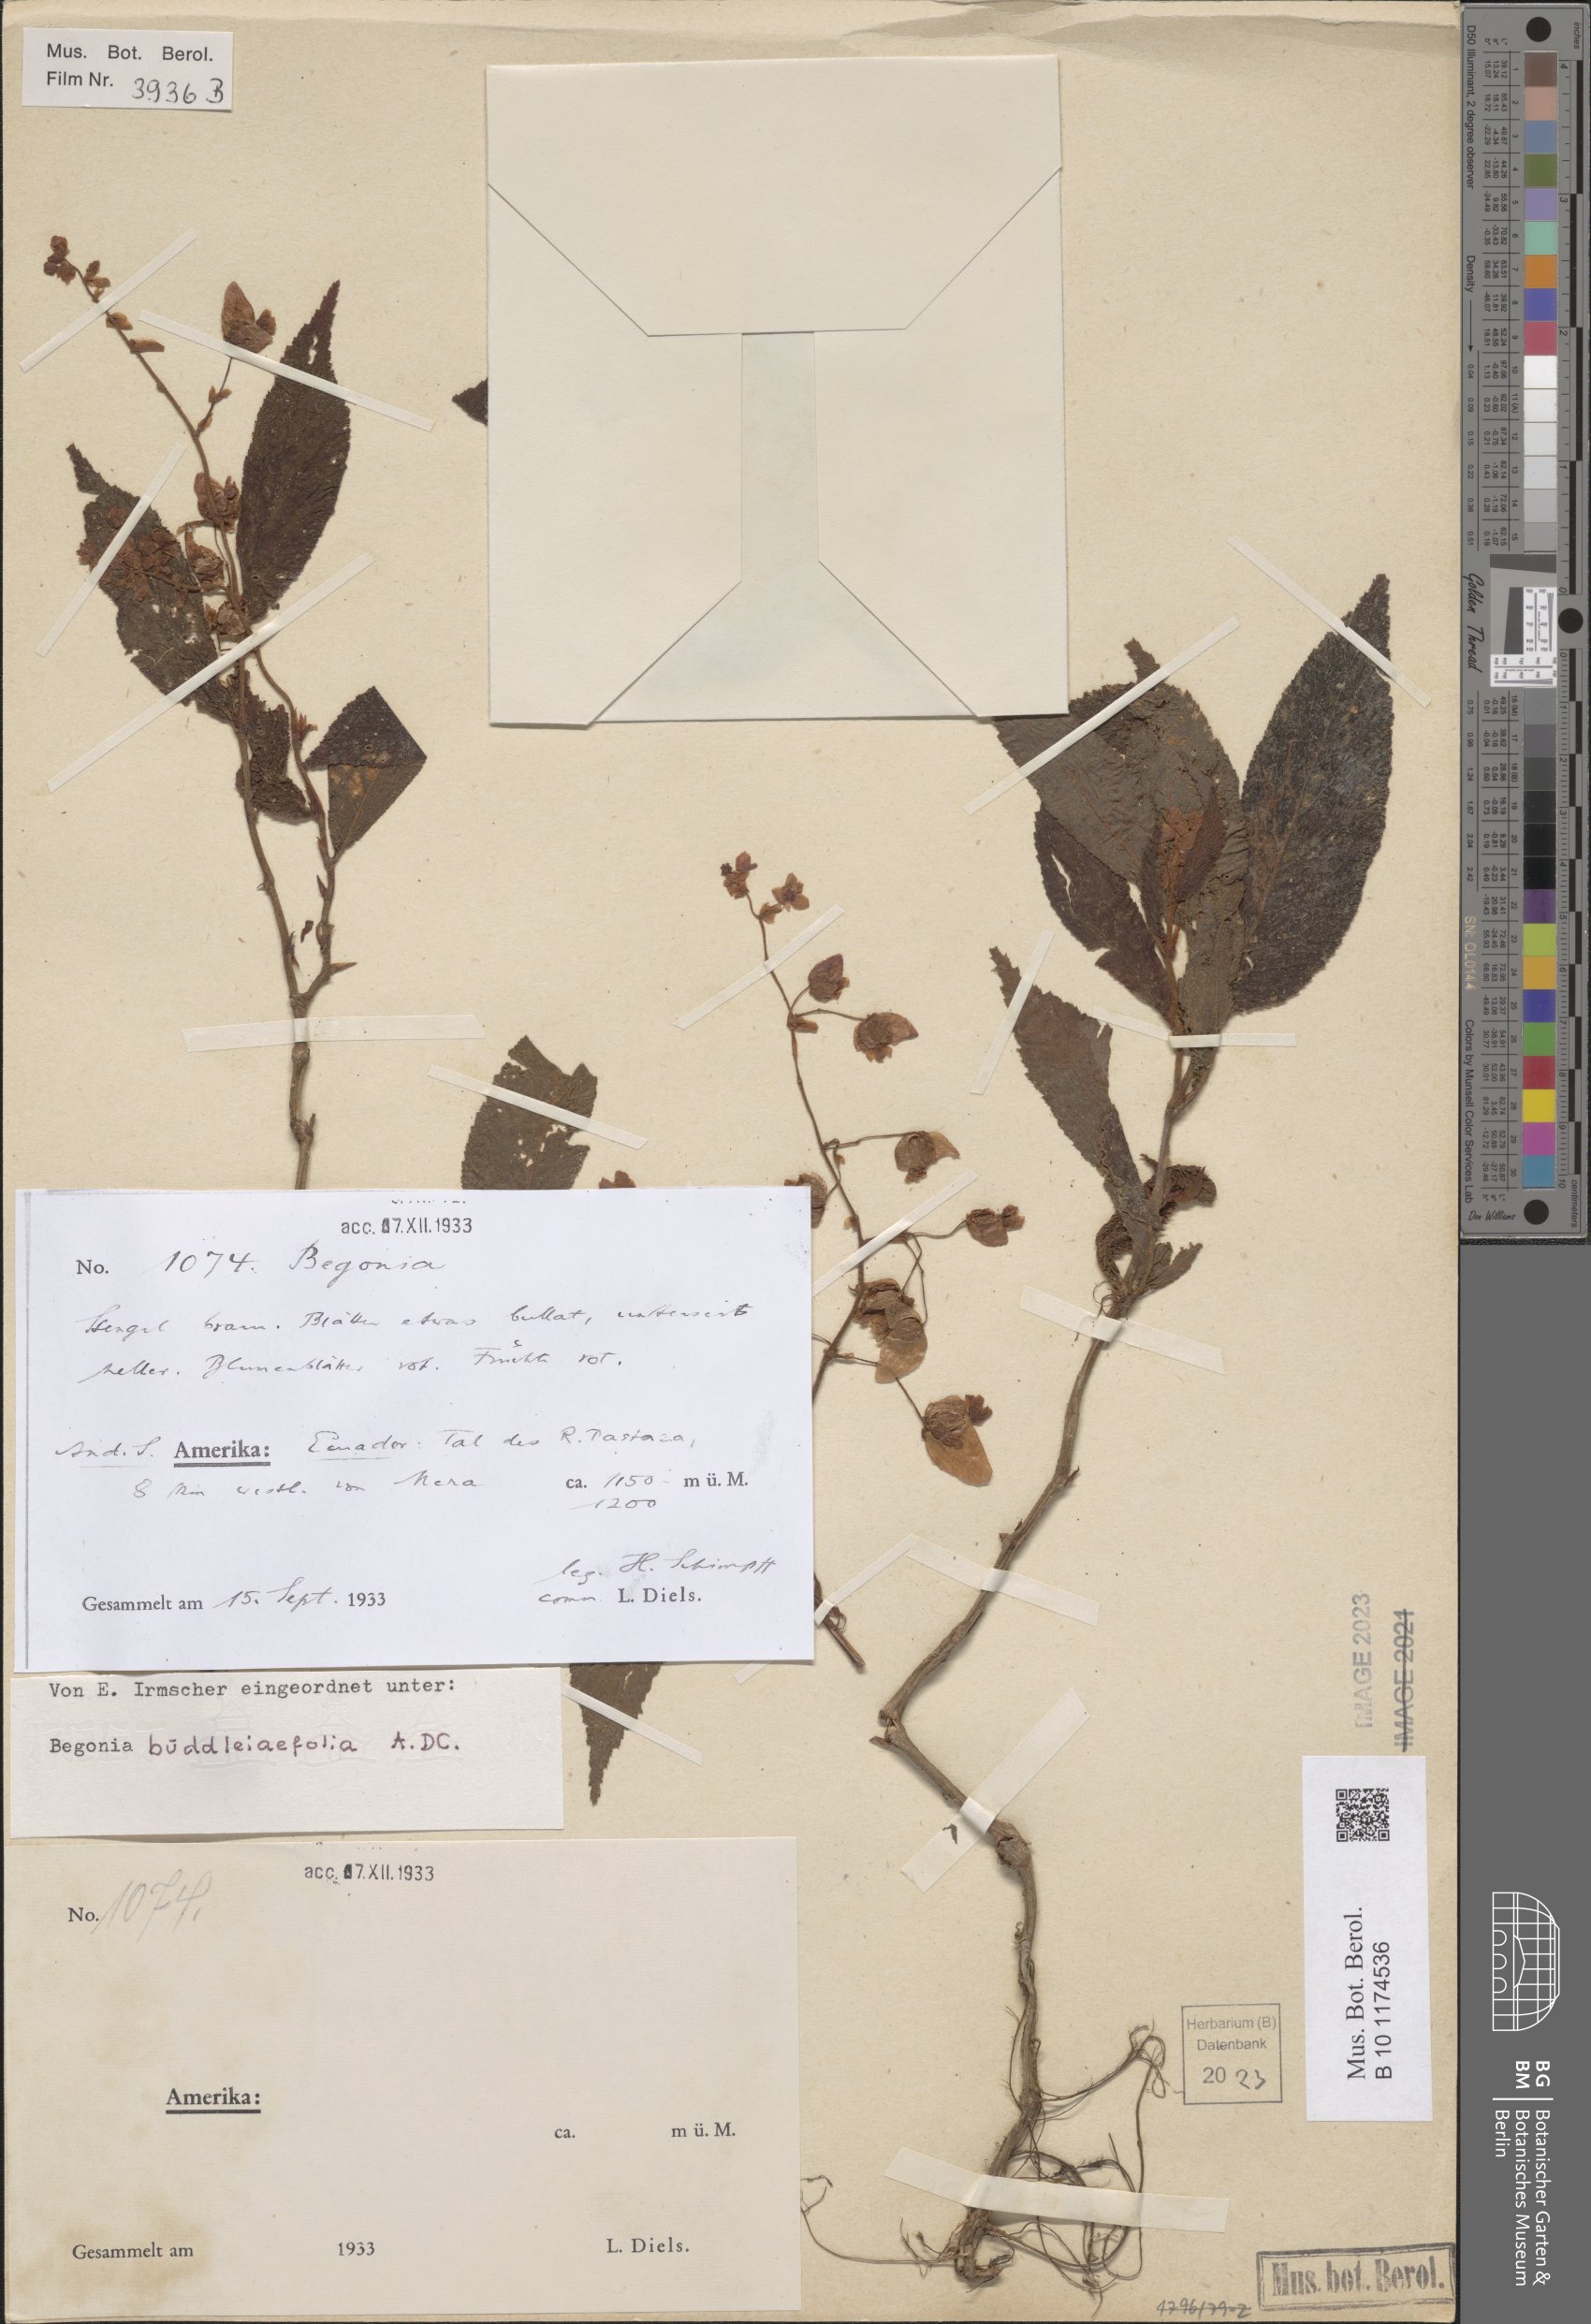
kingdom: Plantae
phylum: Tracheophyta
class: Magnoliopsida
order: Cucurbitales
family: Begoniaceae
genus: Begonia
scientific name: Begonia buddleiifolia
